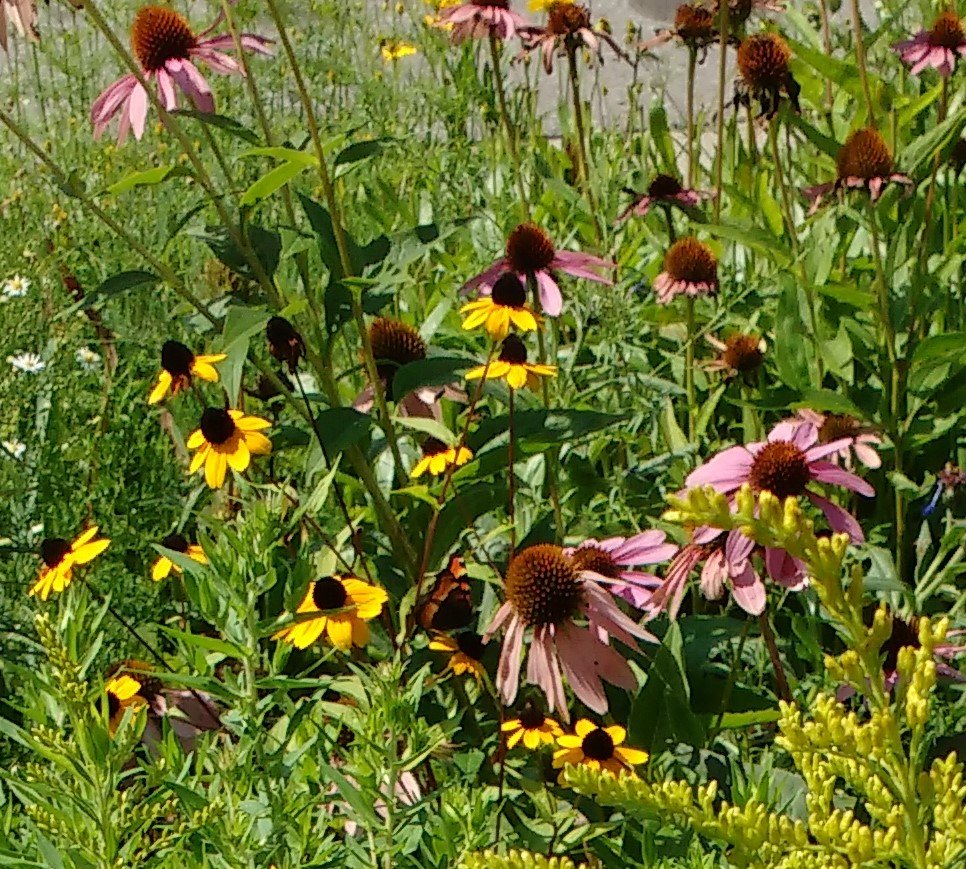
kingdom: Animalia
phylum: Arthropoda
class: Insecta
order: Lepidoptera
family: Nymphalidae
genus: Aglais
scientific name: Aglais milberti
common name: Milbert's Tortoiseshell
